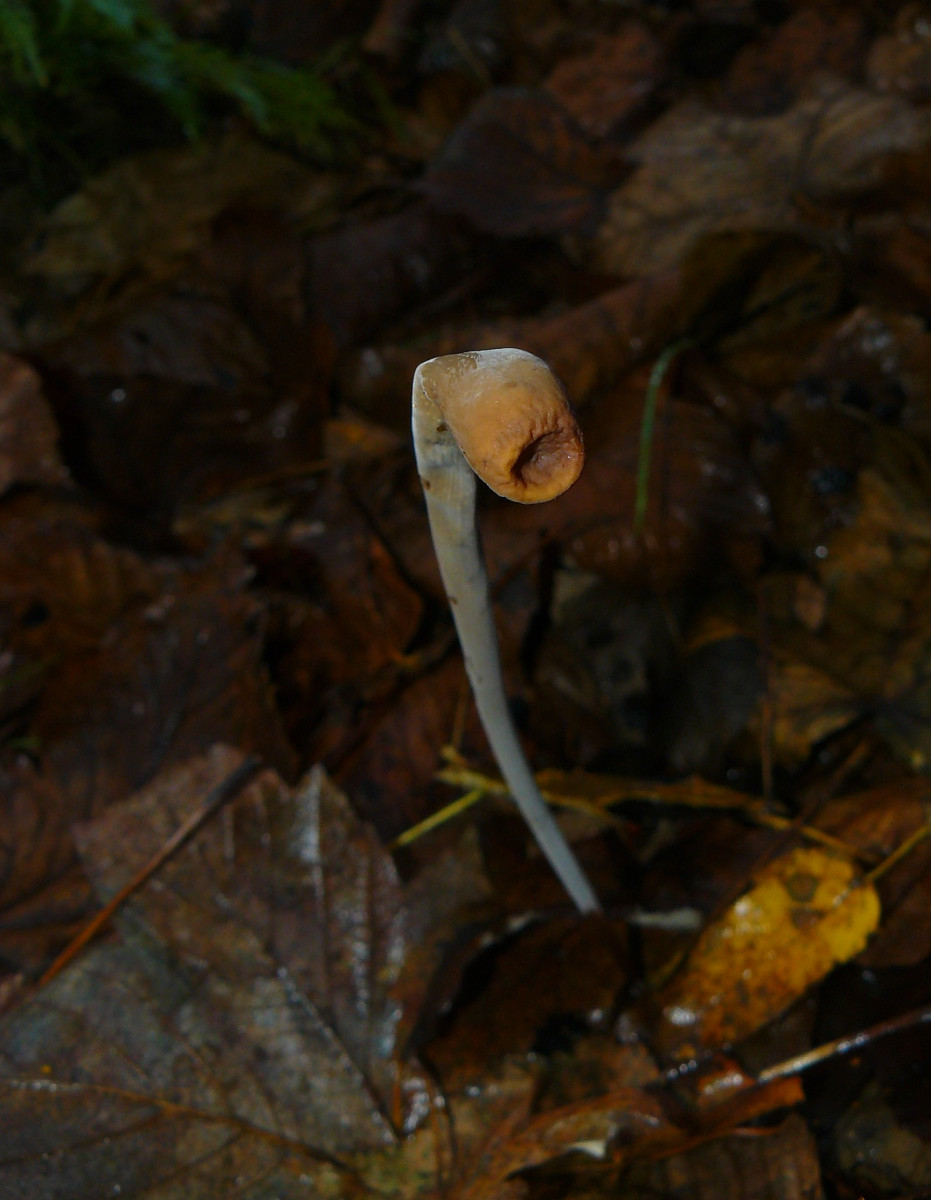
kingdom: Fungi
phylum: Basidiomycota
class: Agaricomycetes
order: Agaricales
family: Typhulaceae
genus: Typhula
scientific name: Typhula fistulosa
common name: pibet rørkølle
